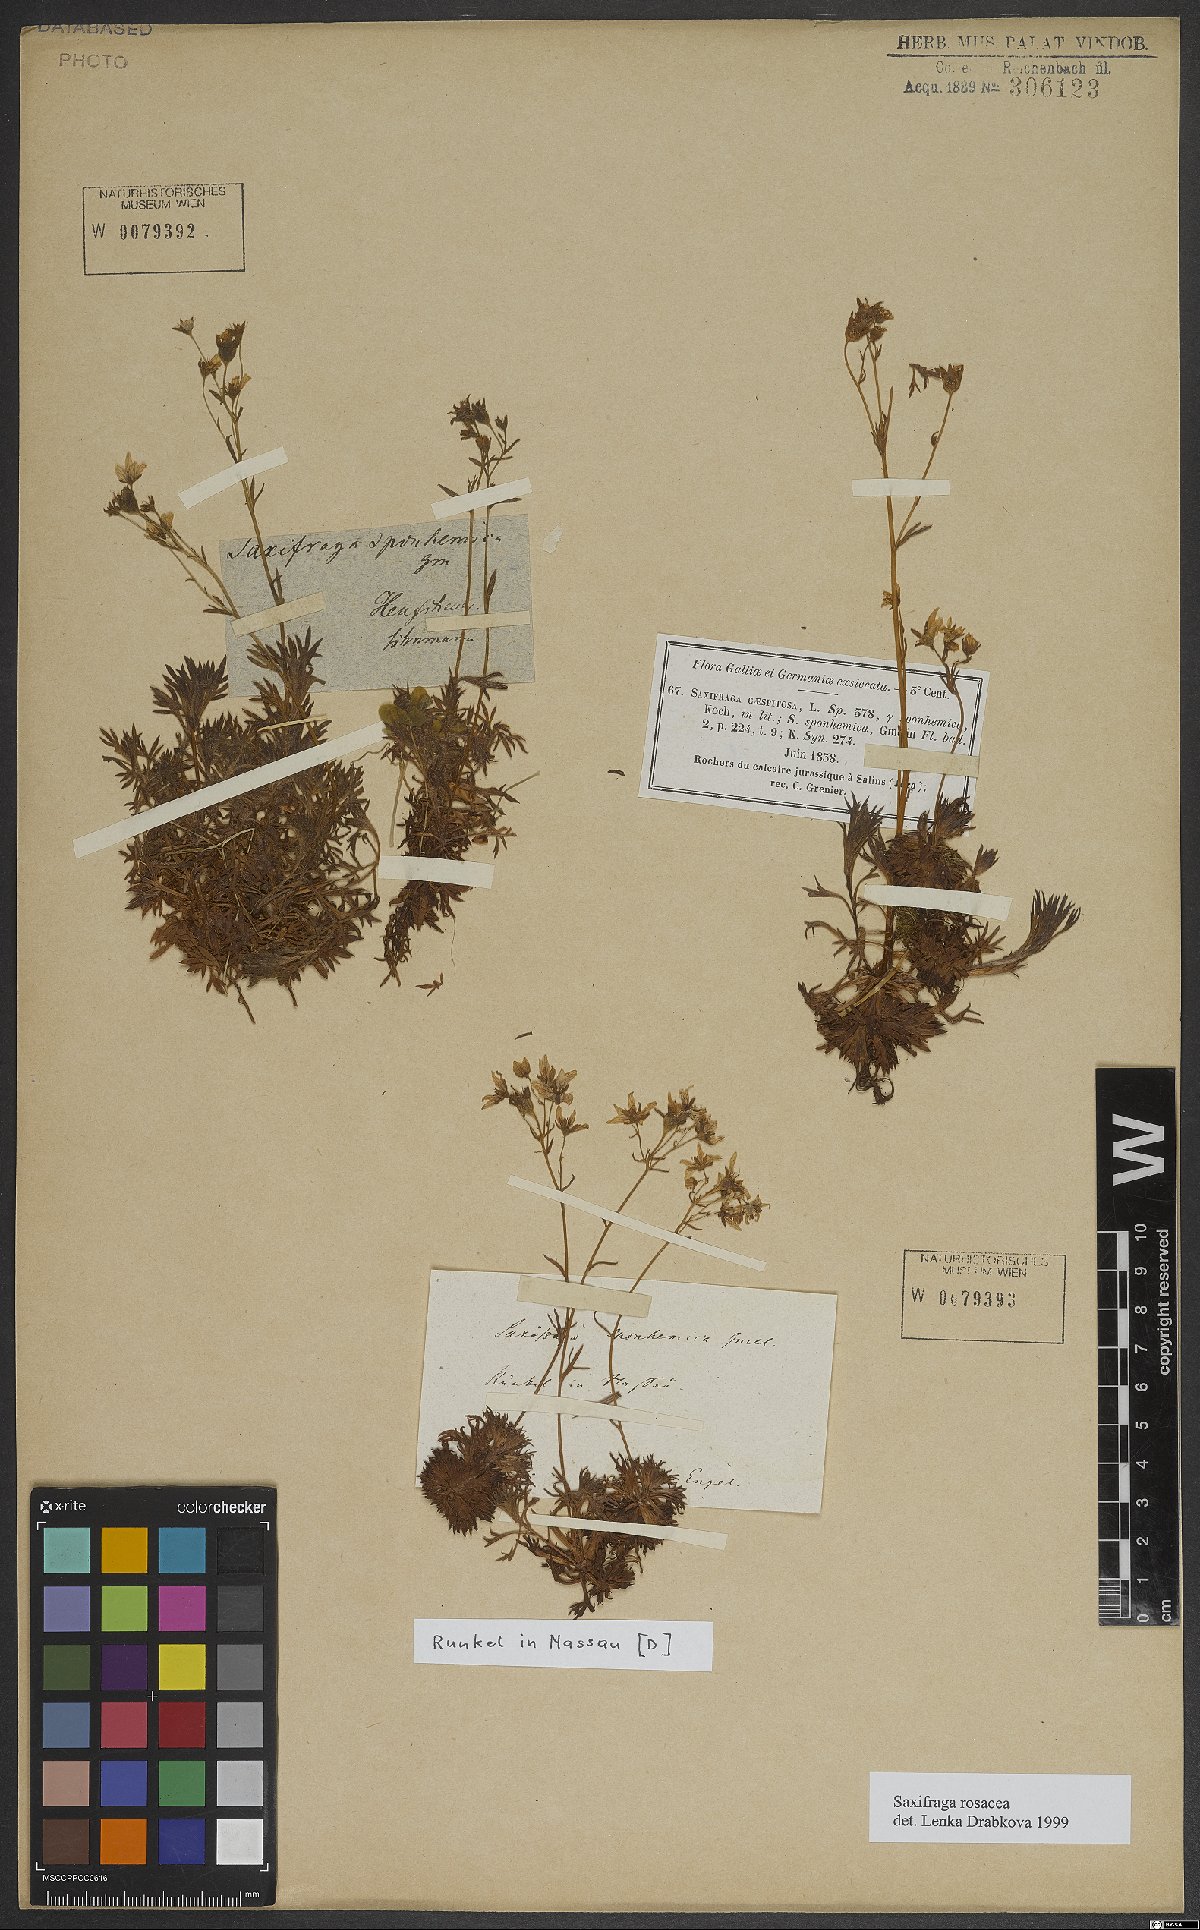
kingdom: Plantae
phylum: Tracheophyta
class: Magnoliopsida
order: Saxifragales
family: Saxifragaceae
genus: Saxifraga
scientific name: Saxifraga rosacea
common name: Irish saxifrage
